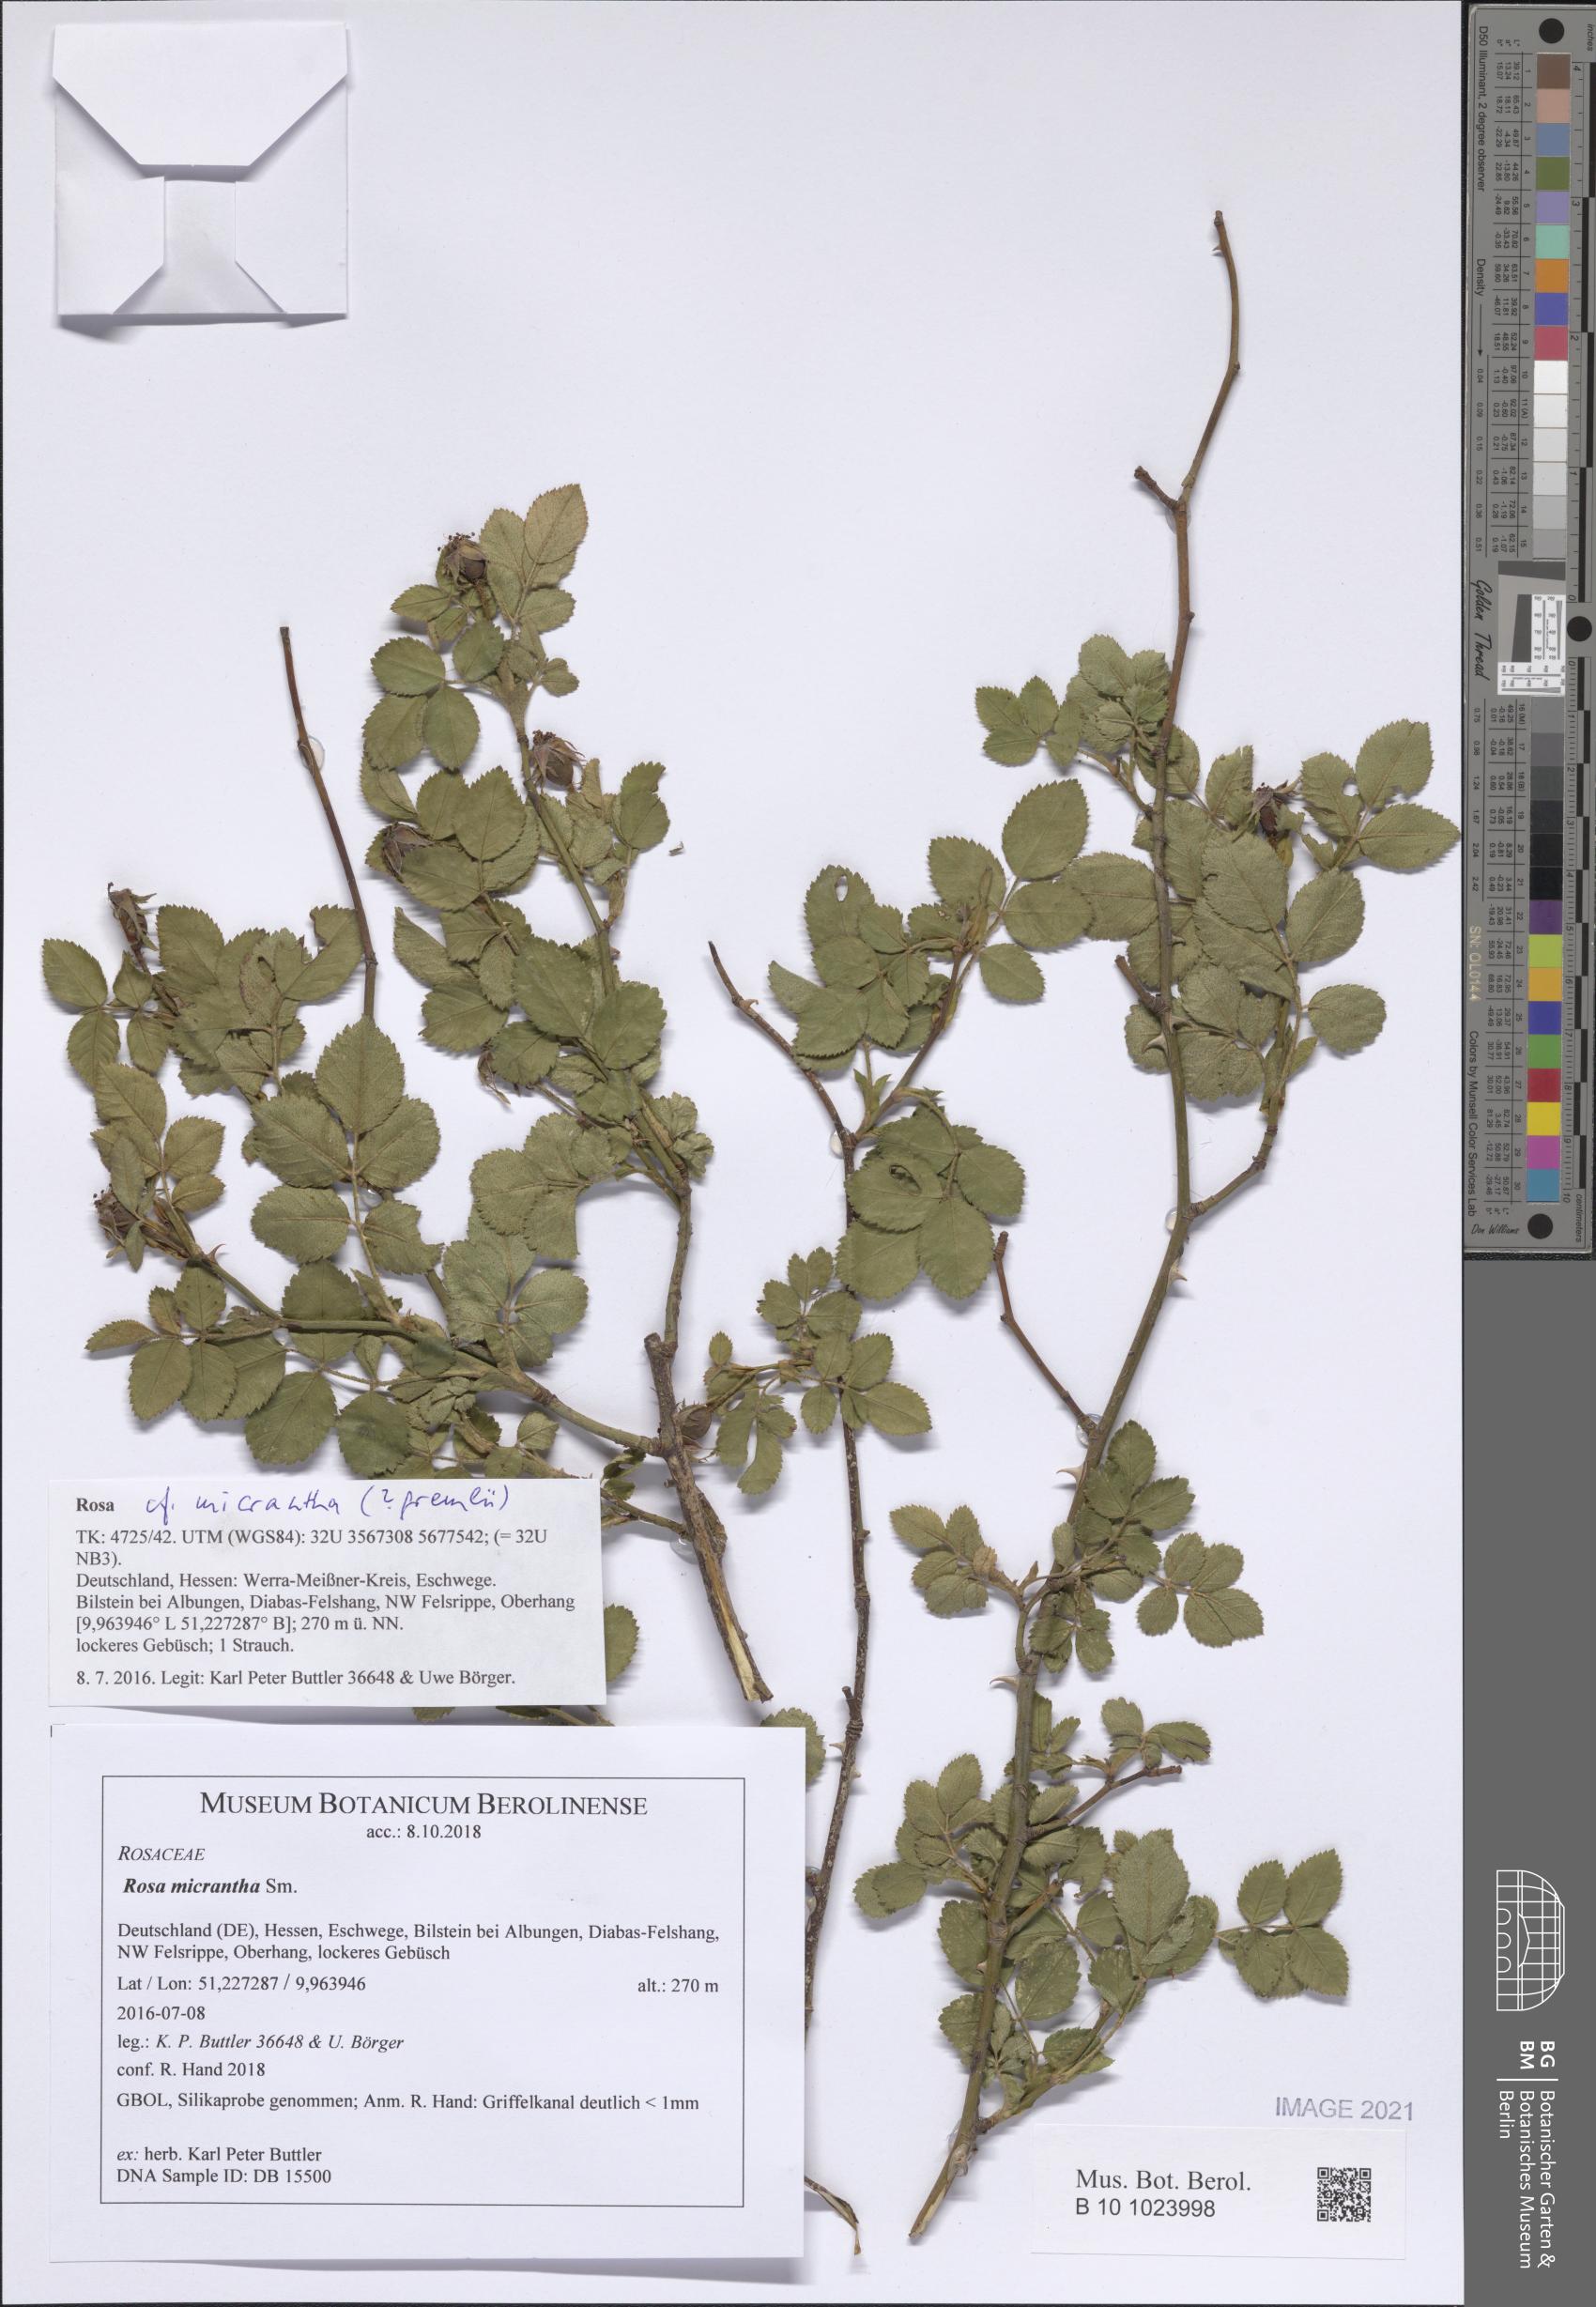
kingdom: Plantae
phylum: Tracheophyta
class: Magnoliopsida
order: Rosales
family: Rosaceae
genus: Rosa
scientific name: Rosa micrantha
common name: Small-flowered sweet-briar
